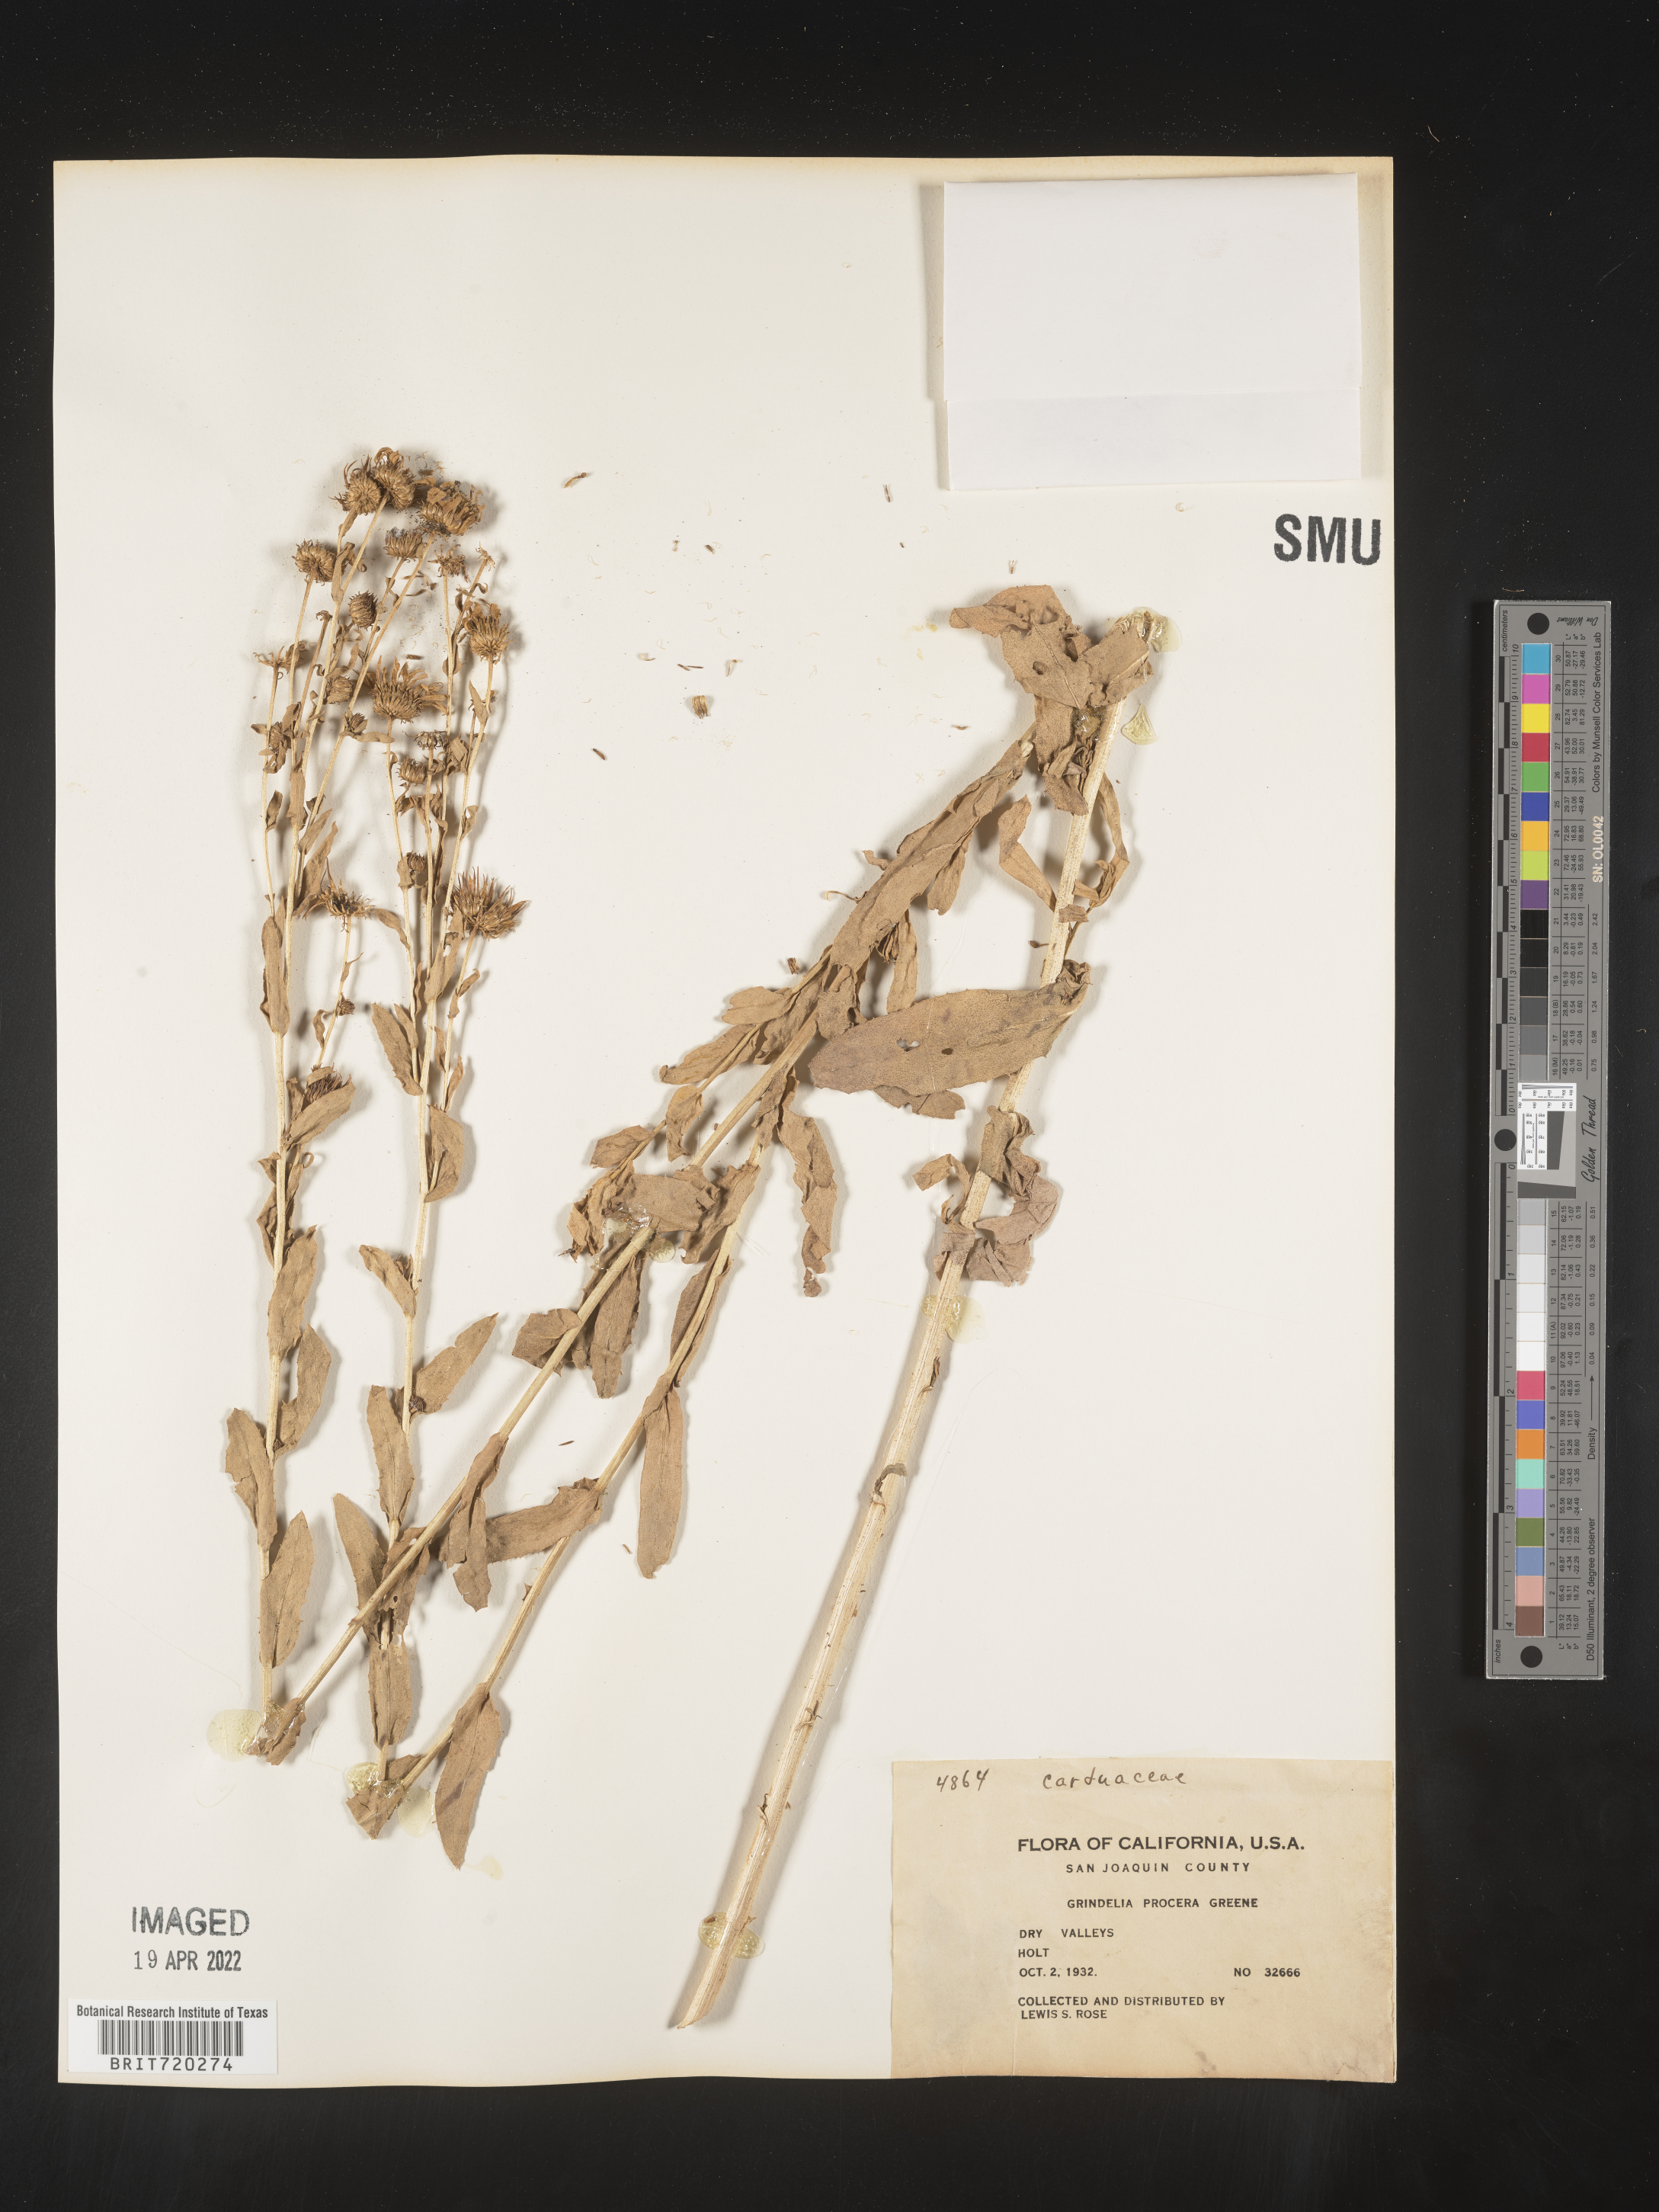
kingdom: Plantae
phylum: Tracheophyta
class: Magnoliopsida
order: Asterales
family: Asteraceae
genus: Grindelia
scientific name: Grindelia
